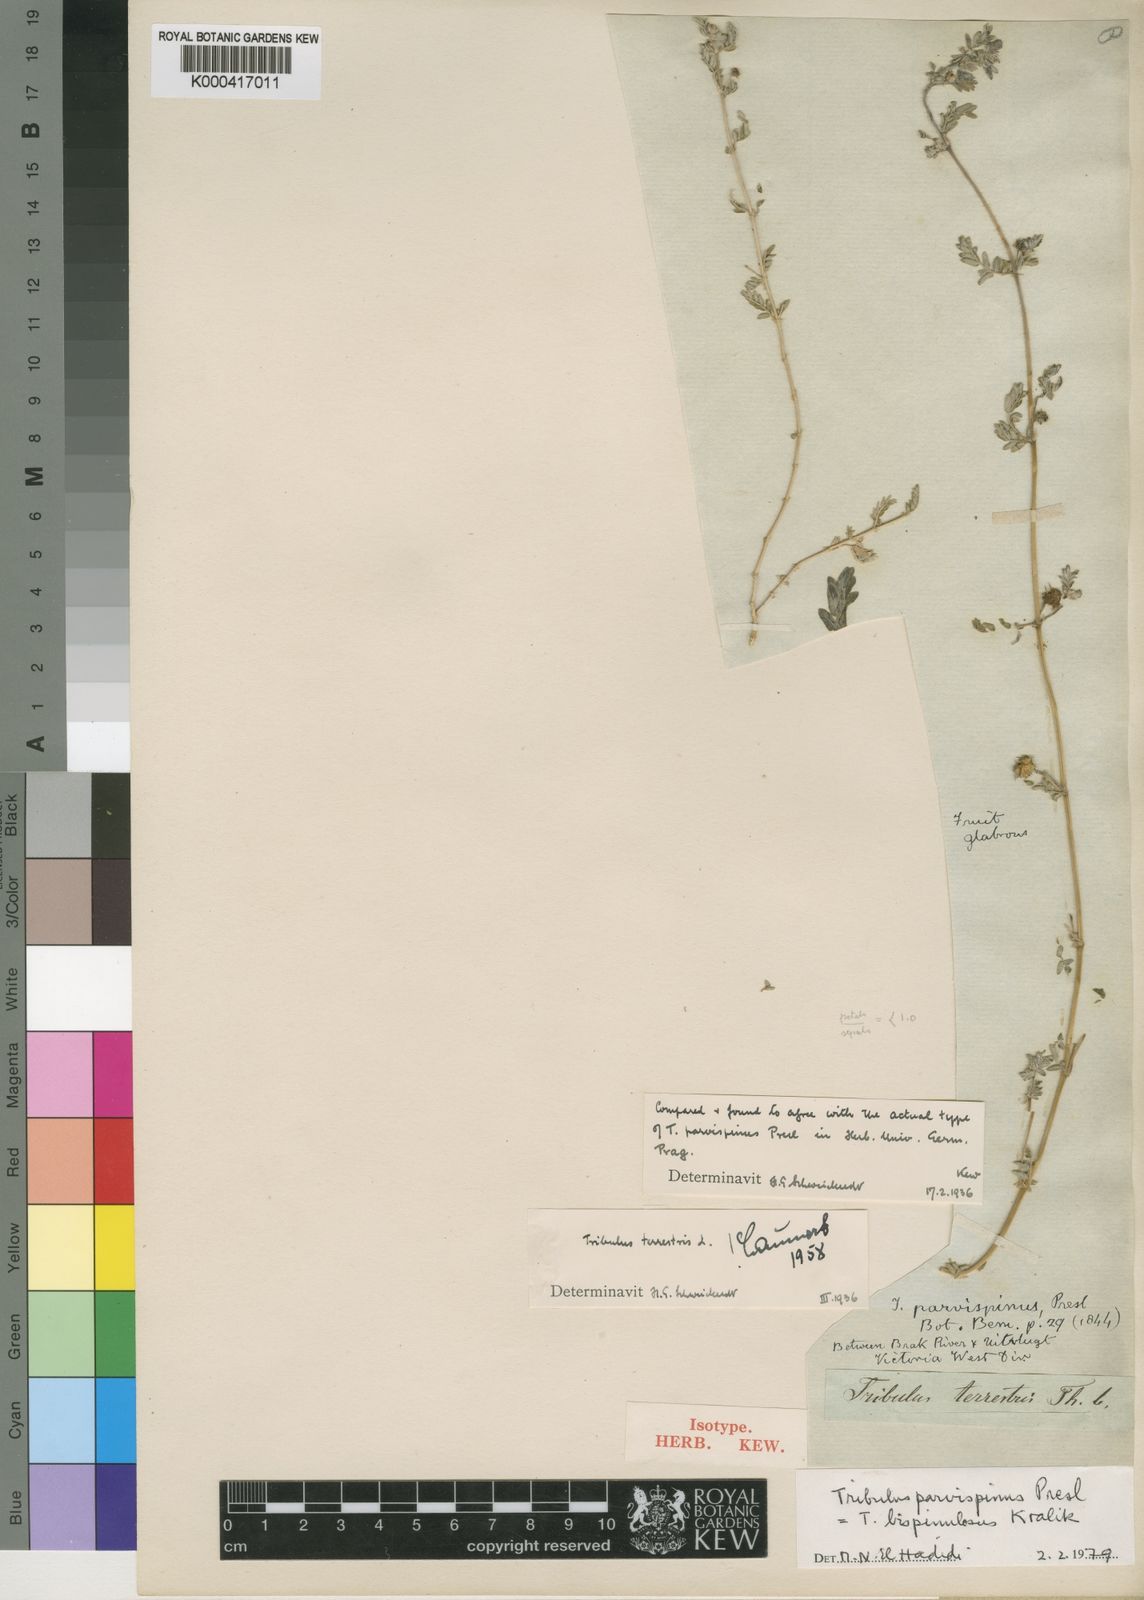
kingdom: Plantae
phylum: Tracheophyta
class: Magnoliopsida
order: Zygophyllales
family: Zygophyllaceae
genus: Tribulus
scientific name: Tribulus parvispinus
